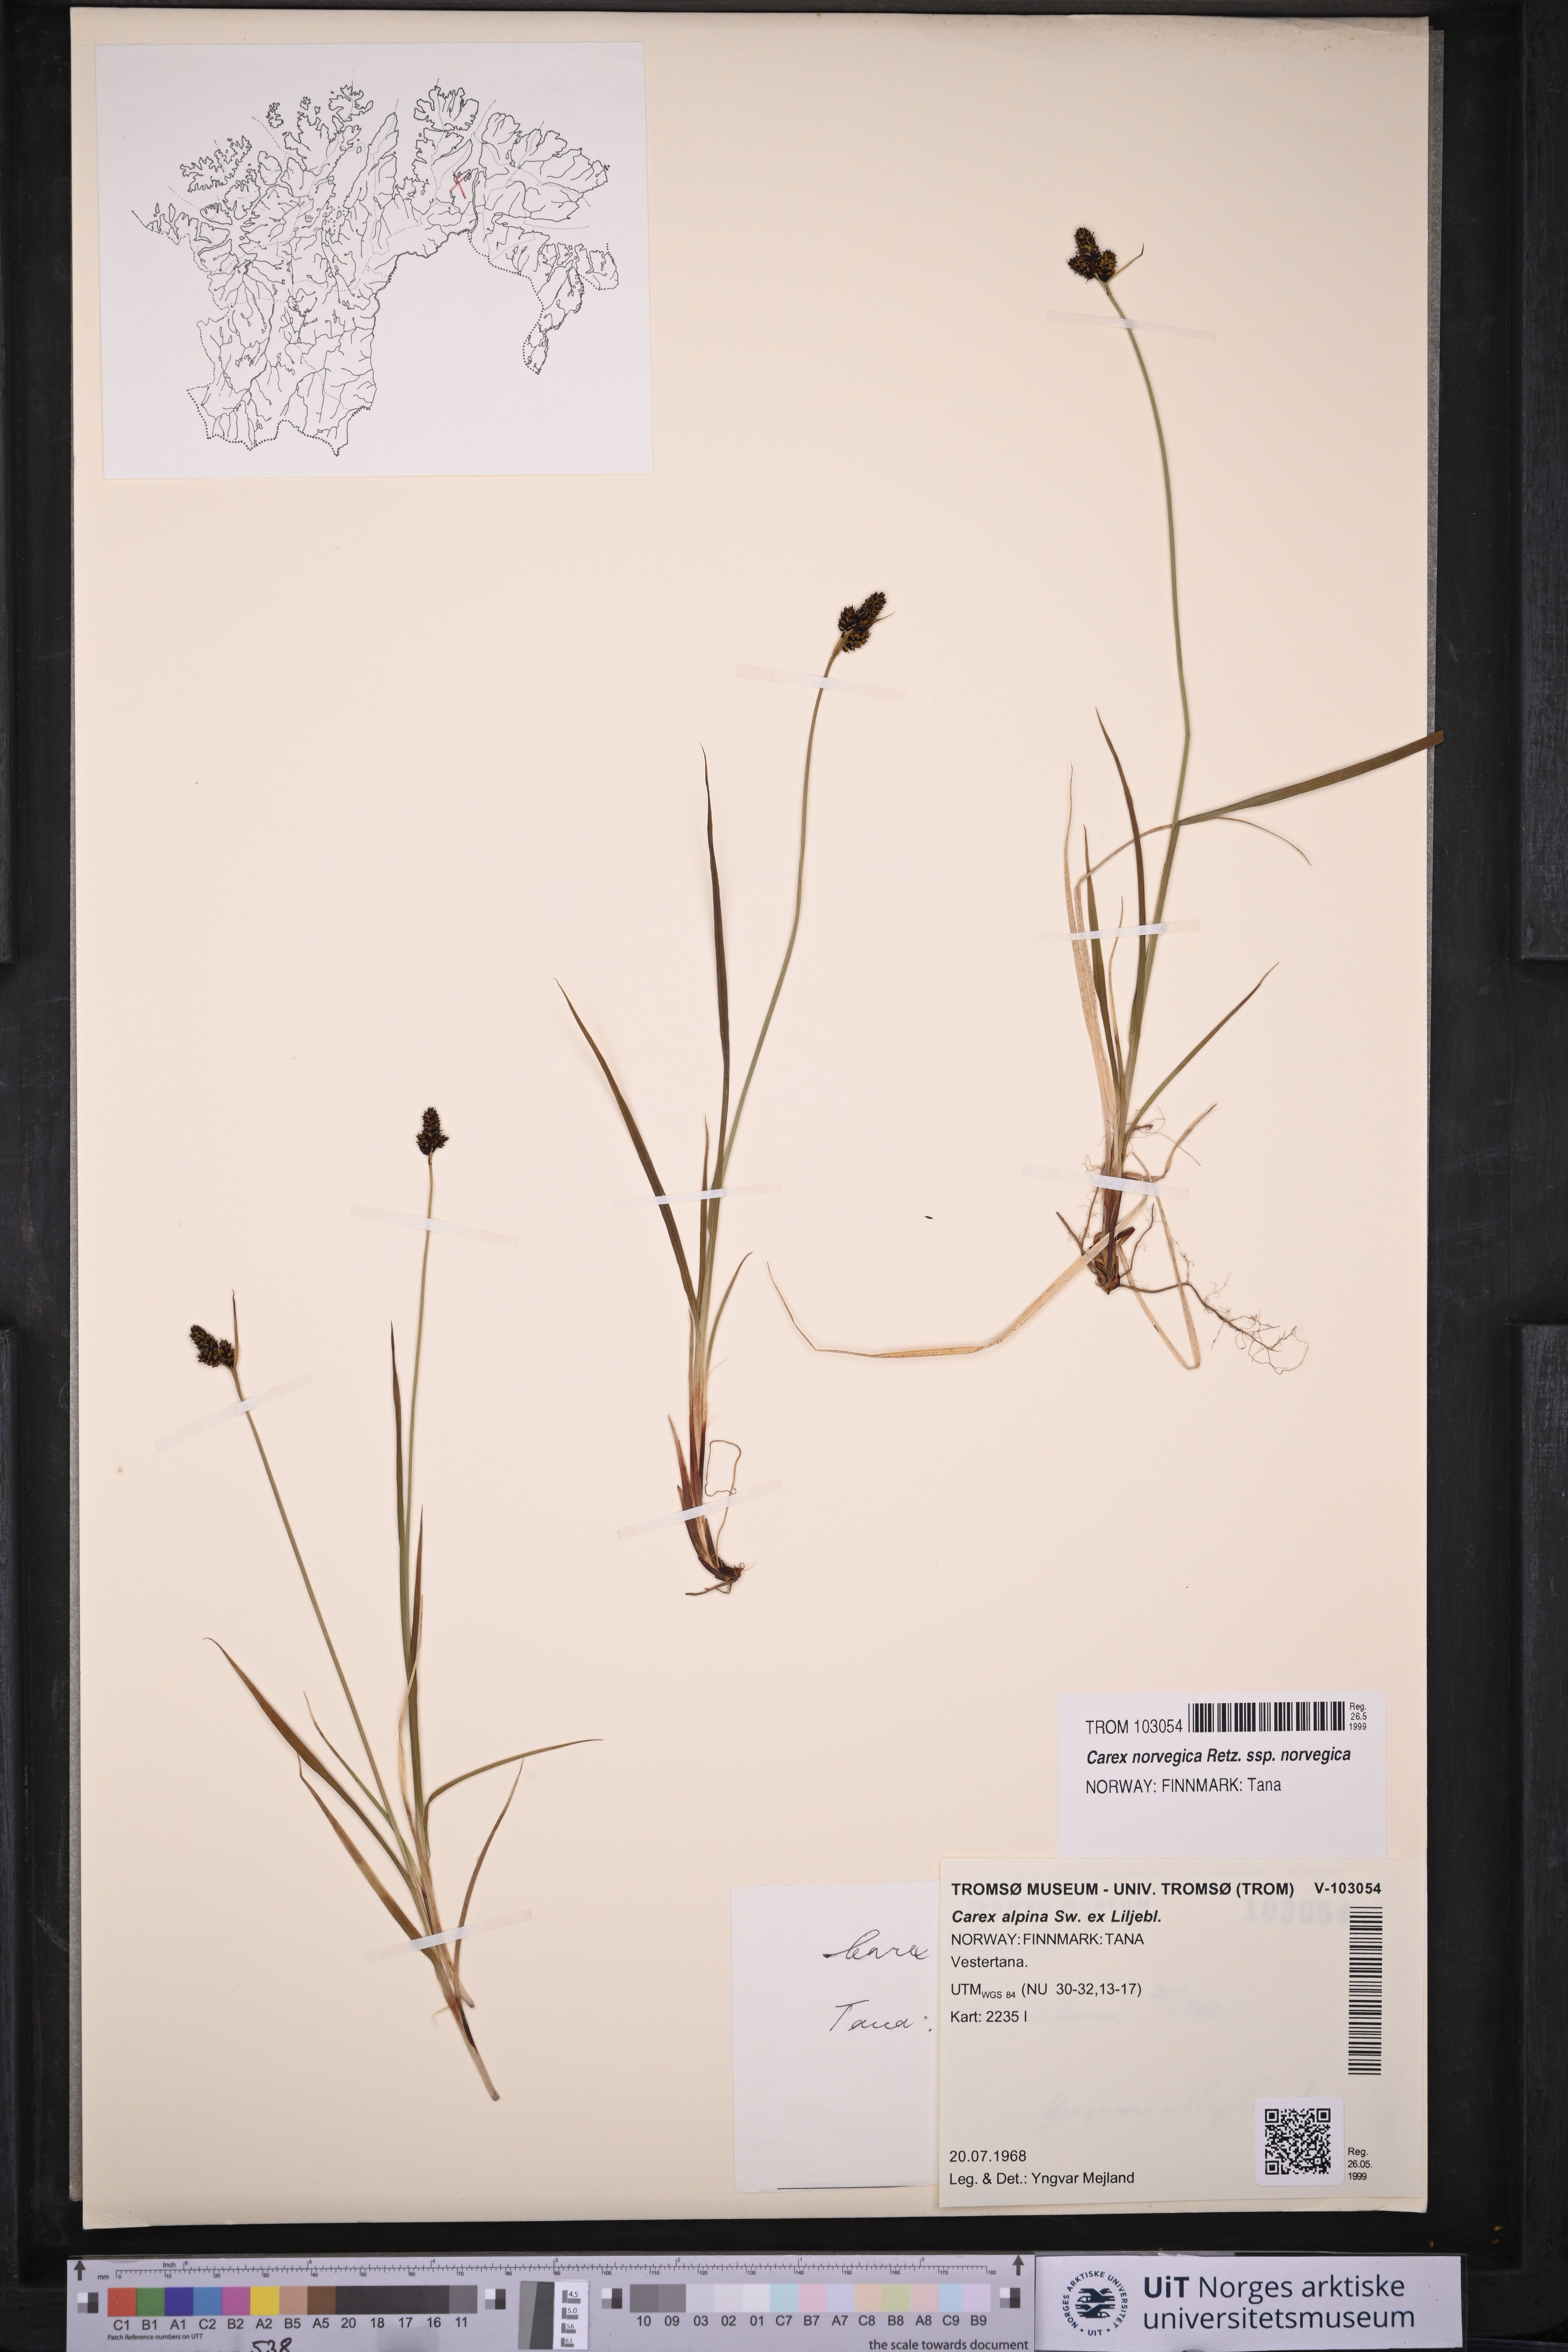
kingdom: Plantae
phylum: Tracheophyta
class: Liliopsida
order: Poales
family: Cyperaceae
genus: Carex
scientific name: Carex norvegica
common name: Close-headed alpine-sedge
